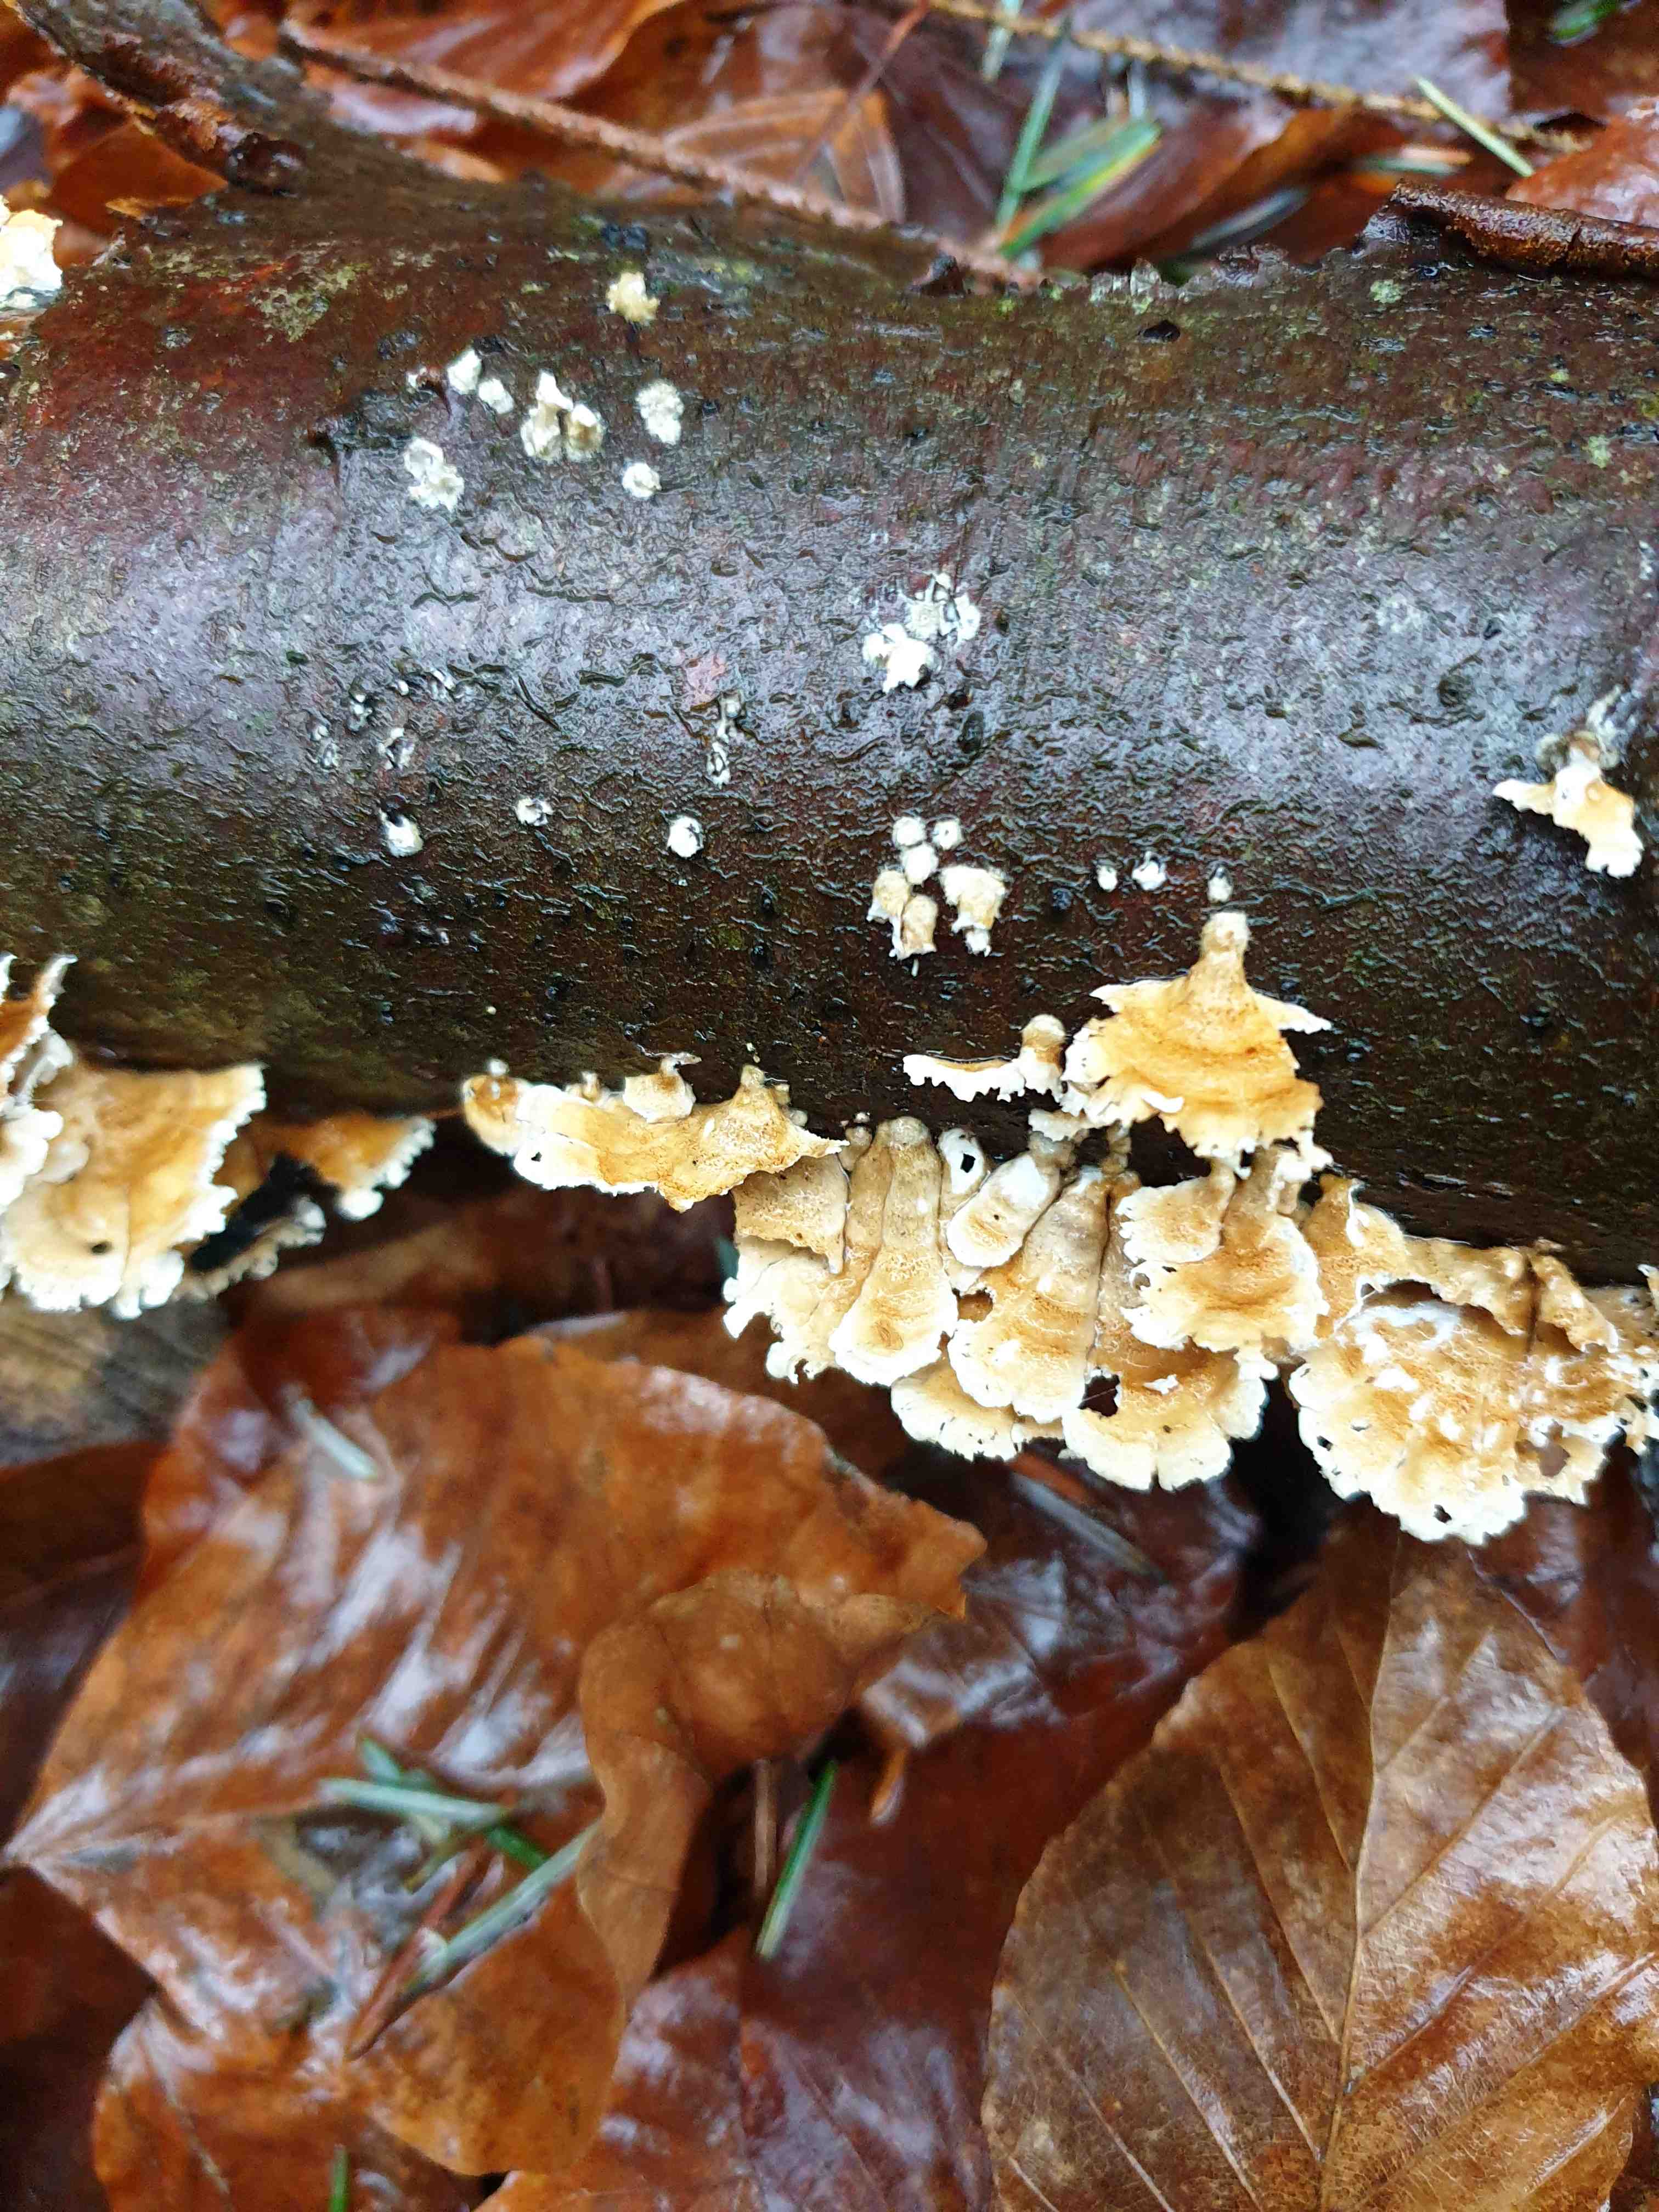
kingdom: Fungi
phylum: Basidiomycota
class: Agaricomycetes
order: Amylocorticiales
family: Amylocorticiaceae
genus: Plicaturopsis
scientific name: Plicaturopsis crispa
